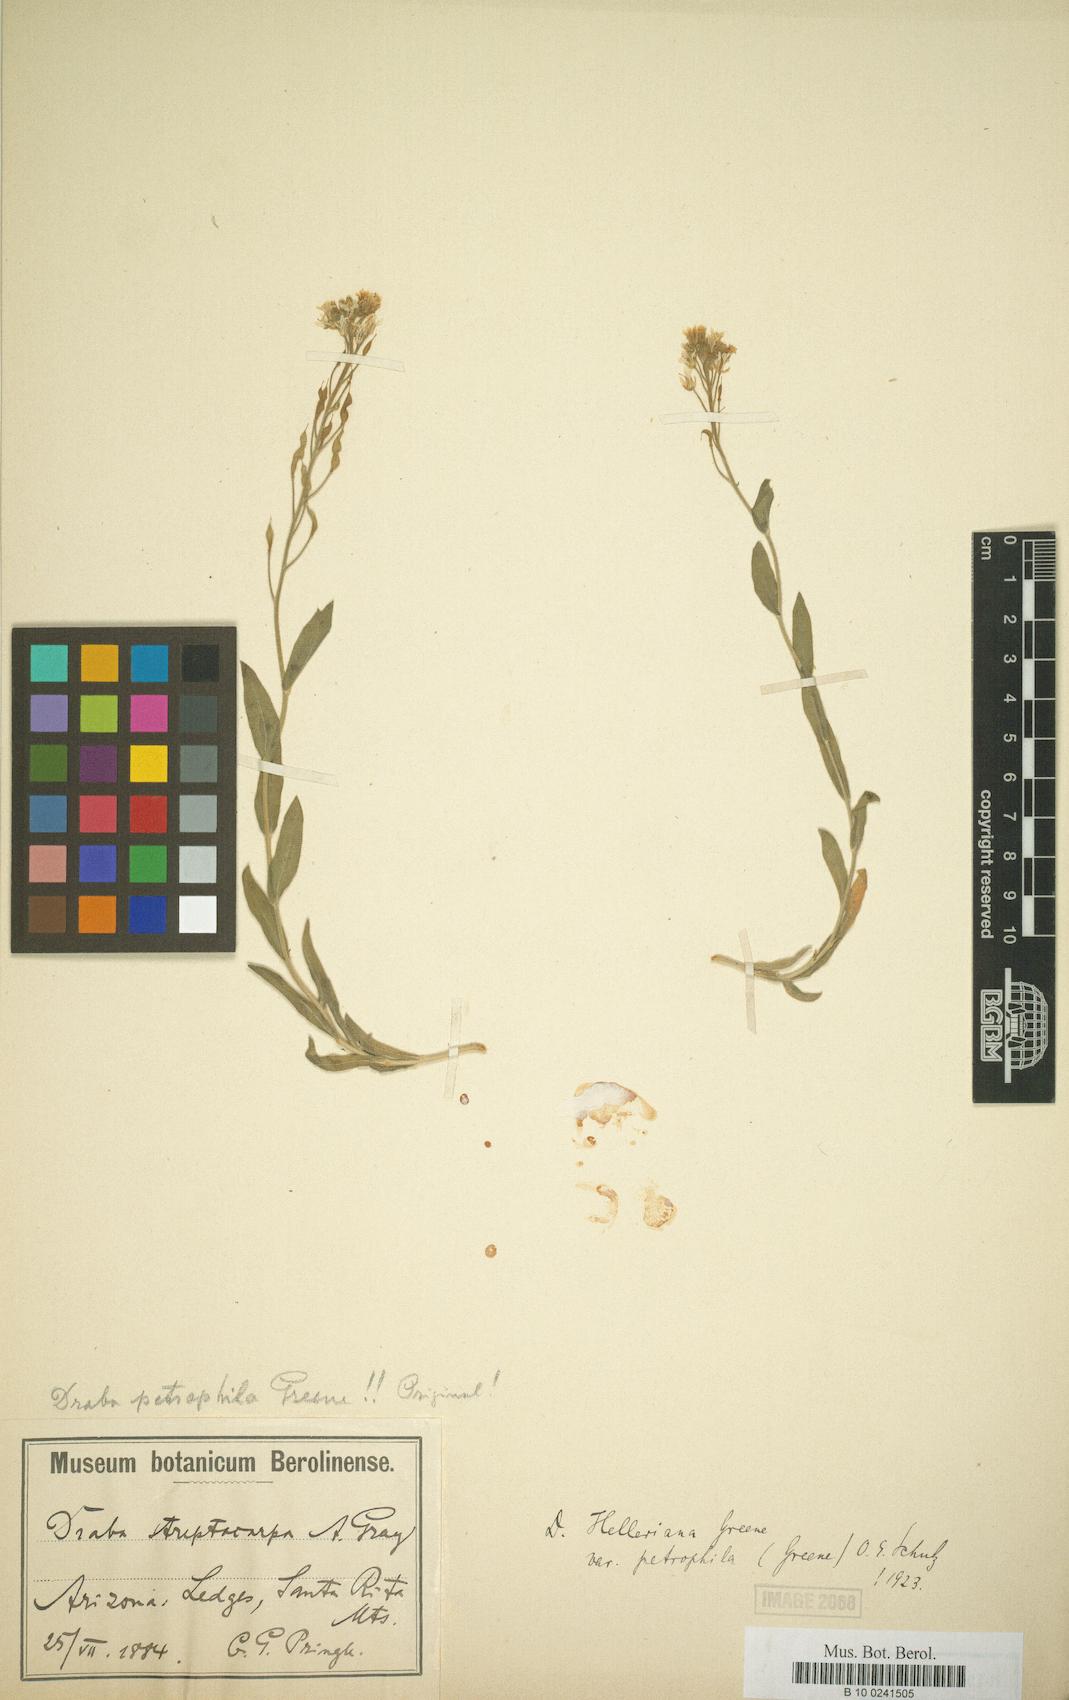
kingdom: Plantae
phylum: Tracheophyta
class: Magnoliopsida
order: Brassicales
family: Brassicaceae
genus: Draba
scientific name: Draba petrophila
